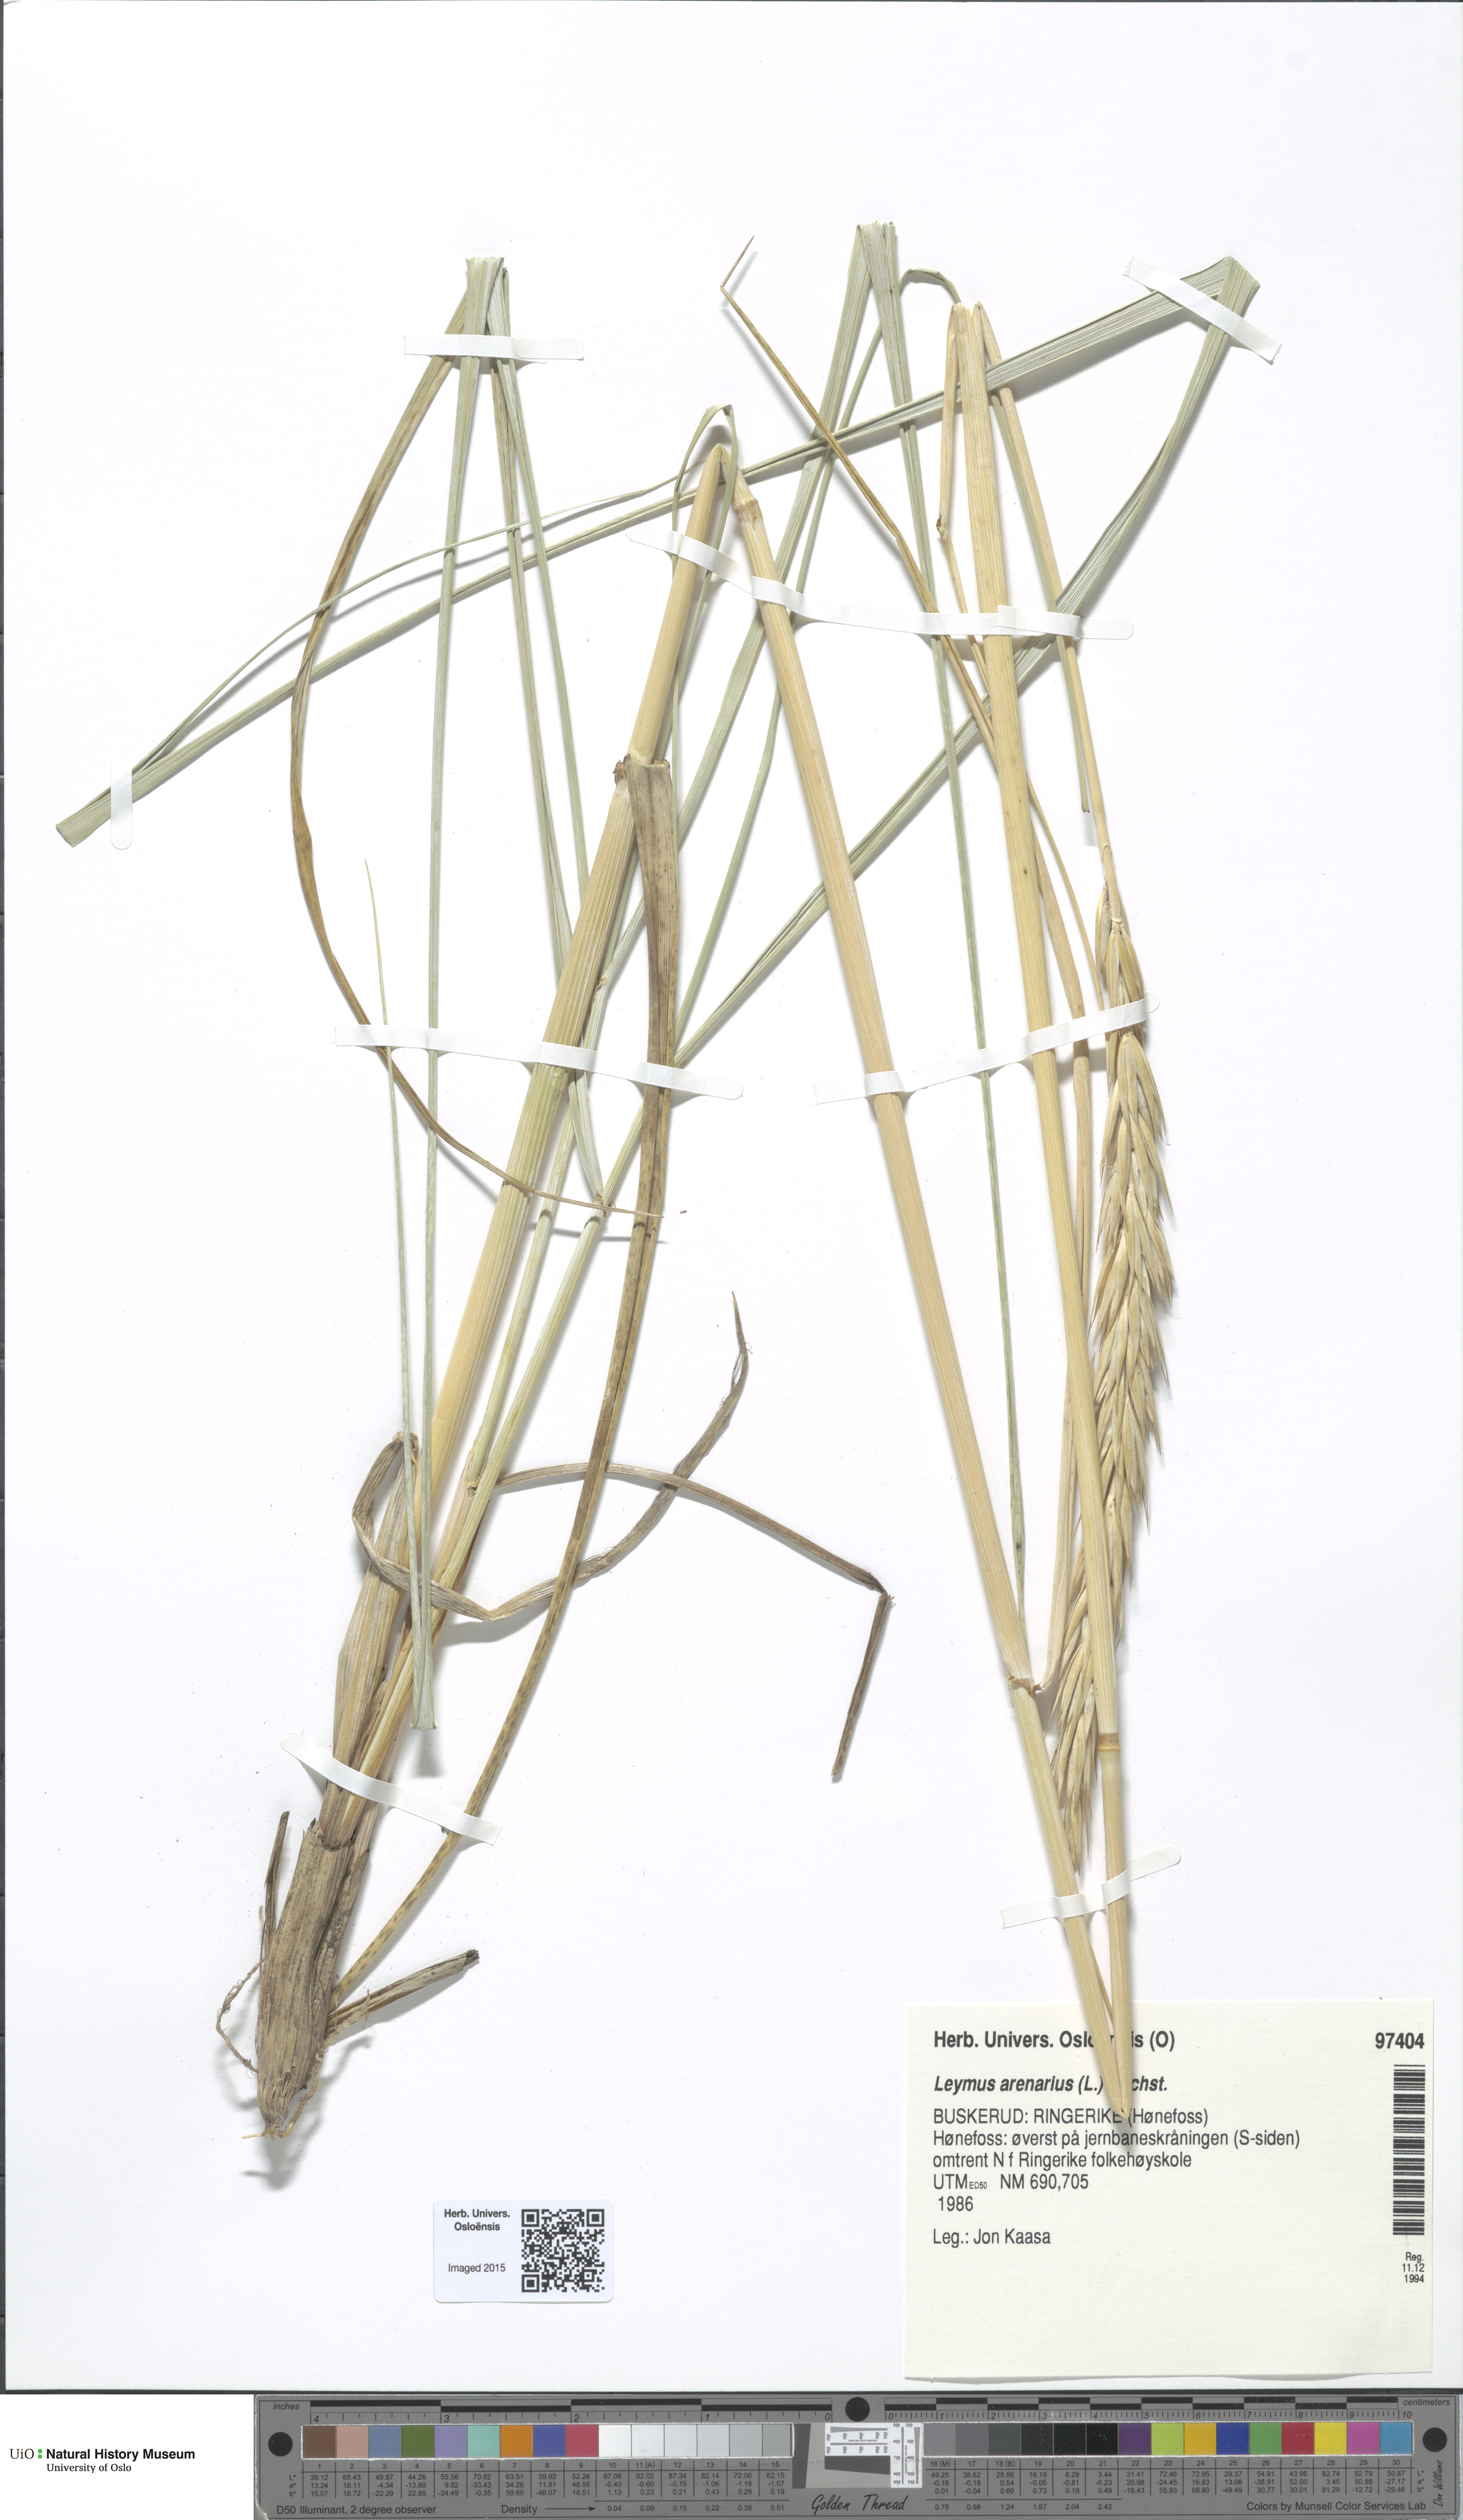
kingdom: Plantae
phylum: Tracheophyta
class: Liliopsida
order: Poales
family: Poaceae
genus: Leymus
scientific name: Leymus arenarius
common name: Lyme-grass
